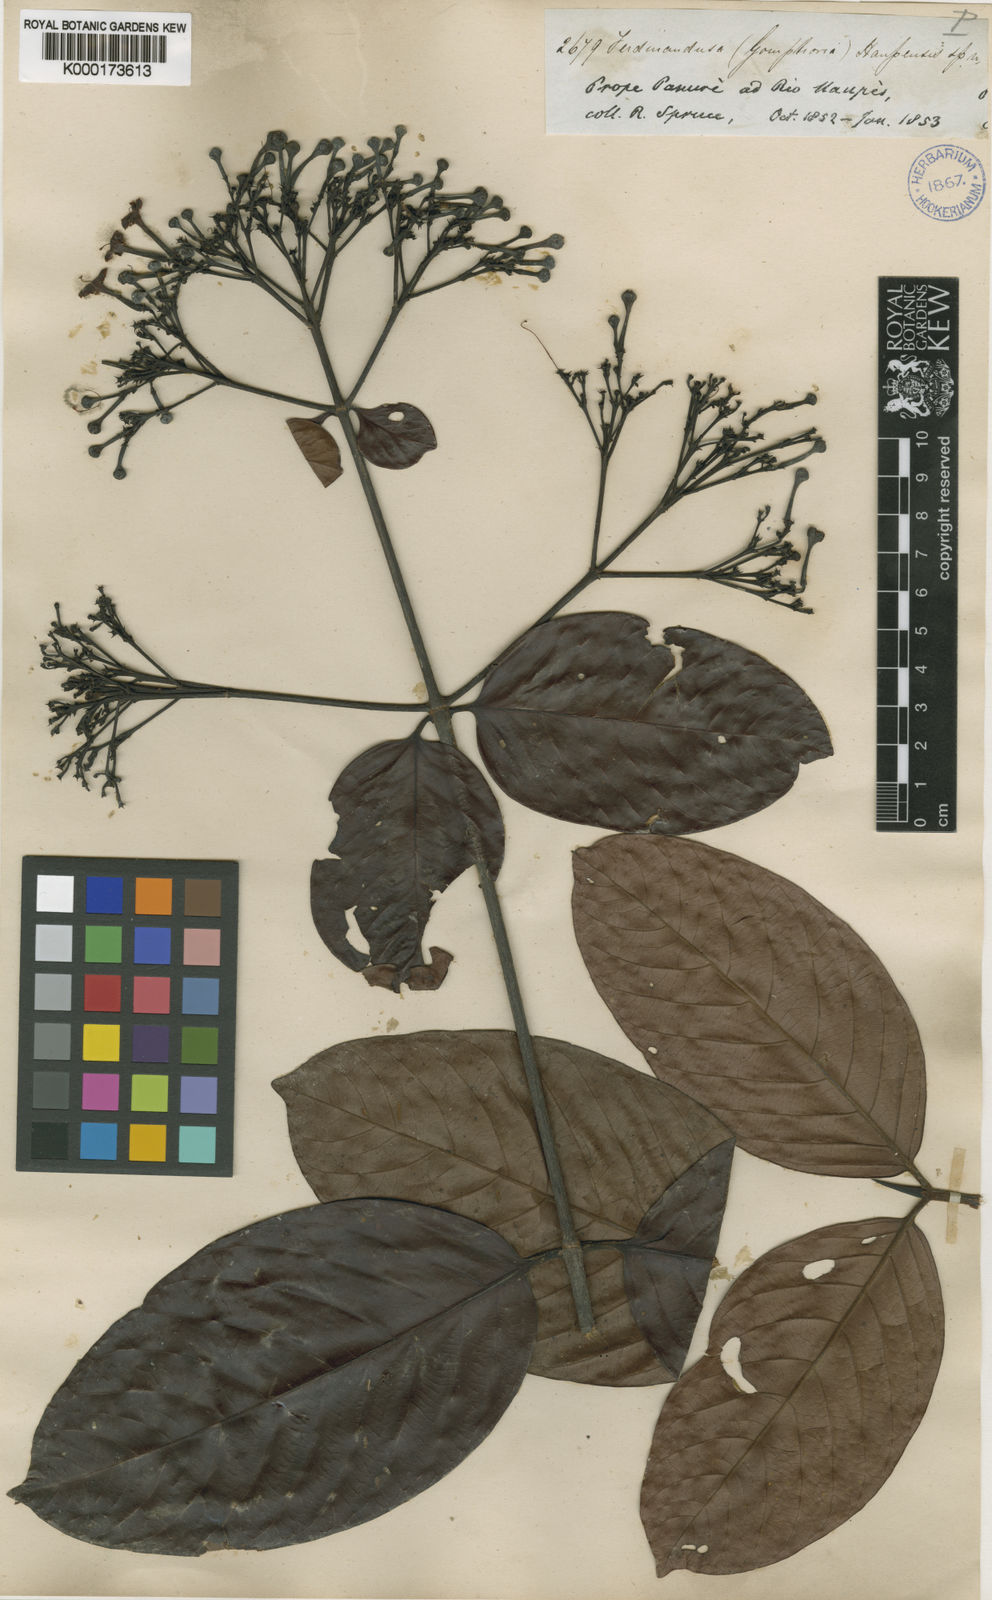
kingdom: Plantae
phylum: Tracheophyta
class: Magnoliopsida
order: Gentianales
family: Rubiaceae
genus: Ferdinandusa
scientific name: Ferdinandusa uaupensis
